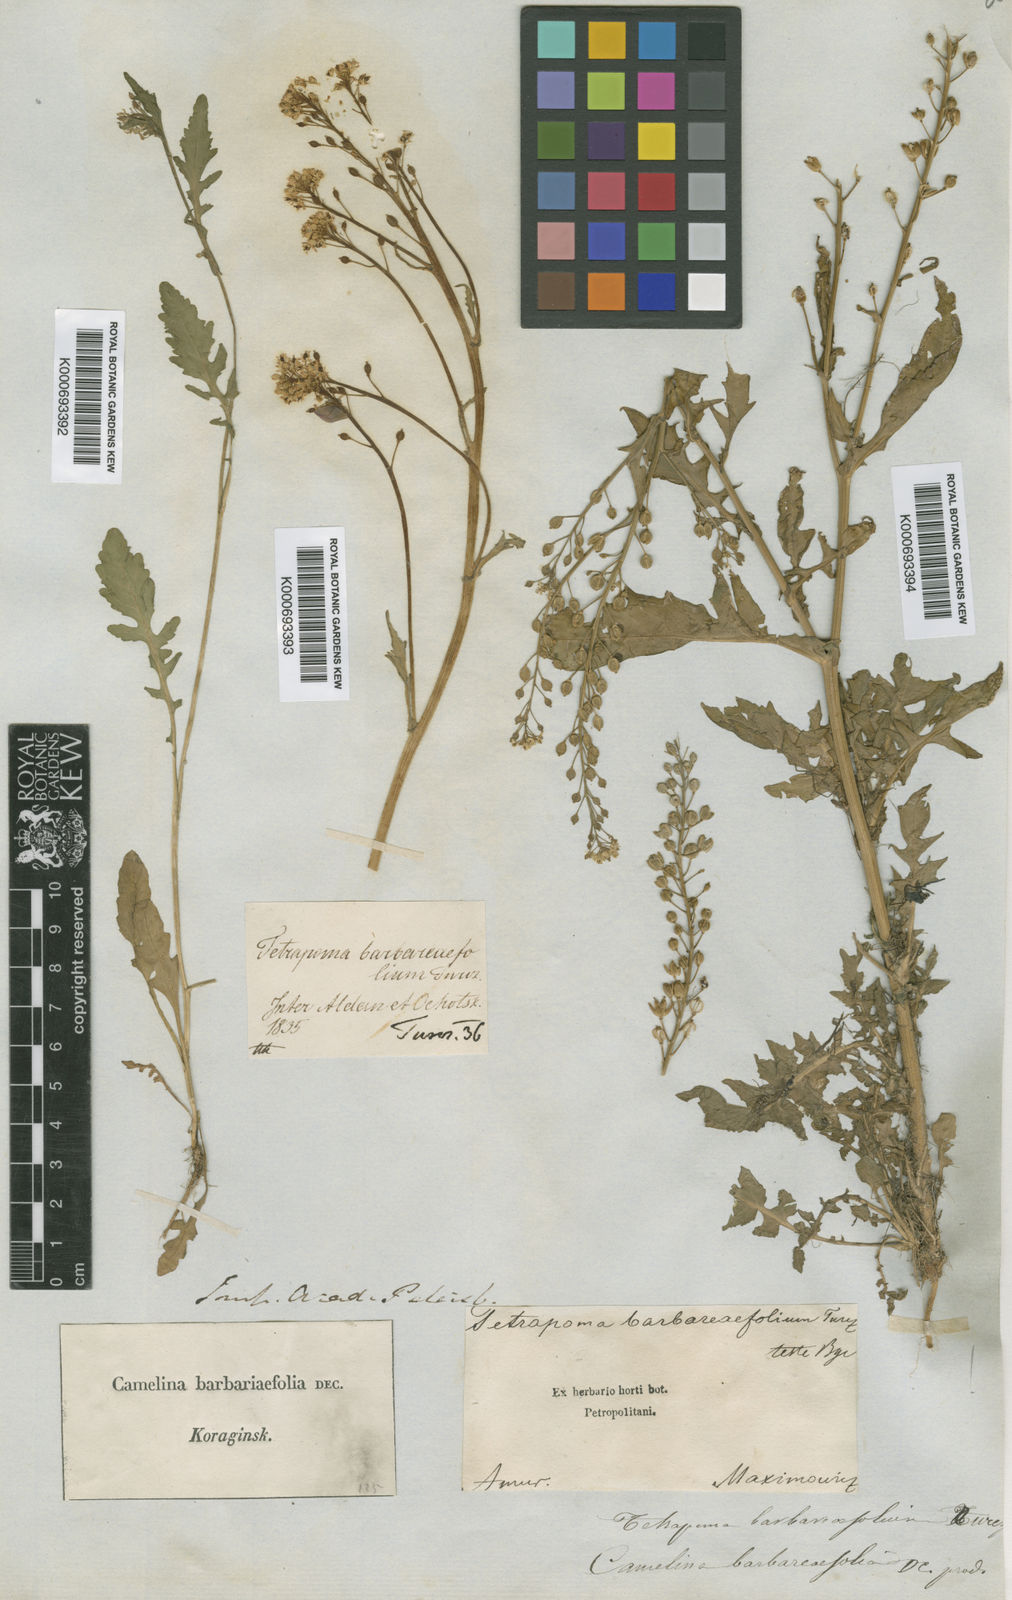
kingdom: Plantae
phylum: Tracheophyta
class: Magnoliopsida
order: Brassicales
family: Brassicaceae
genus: Rorippa
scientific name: Rorippa
